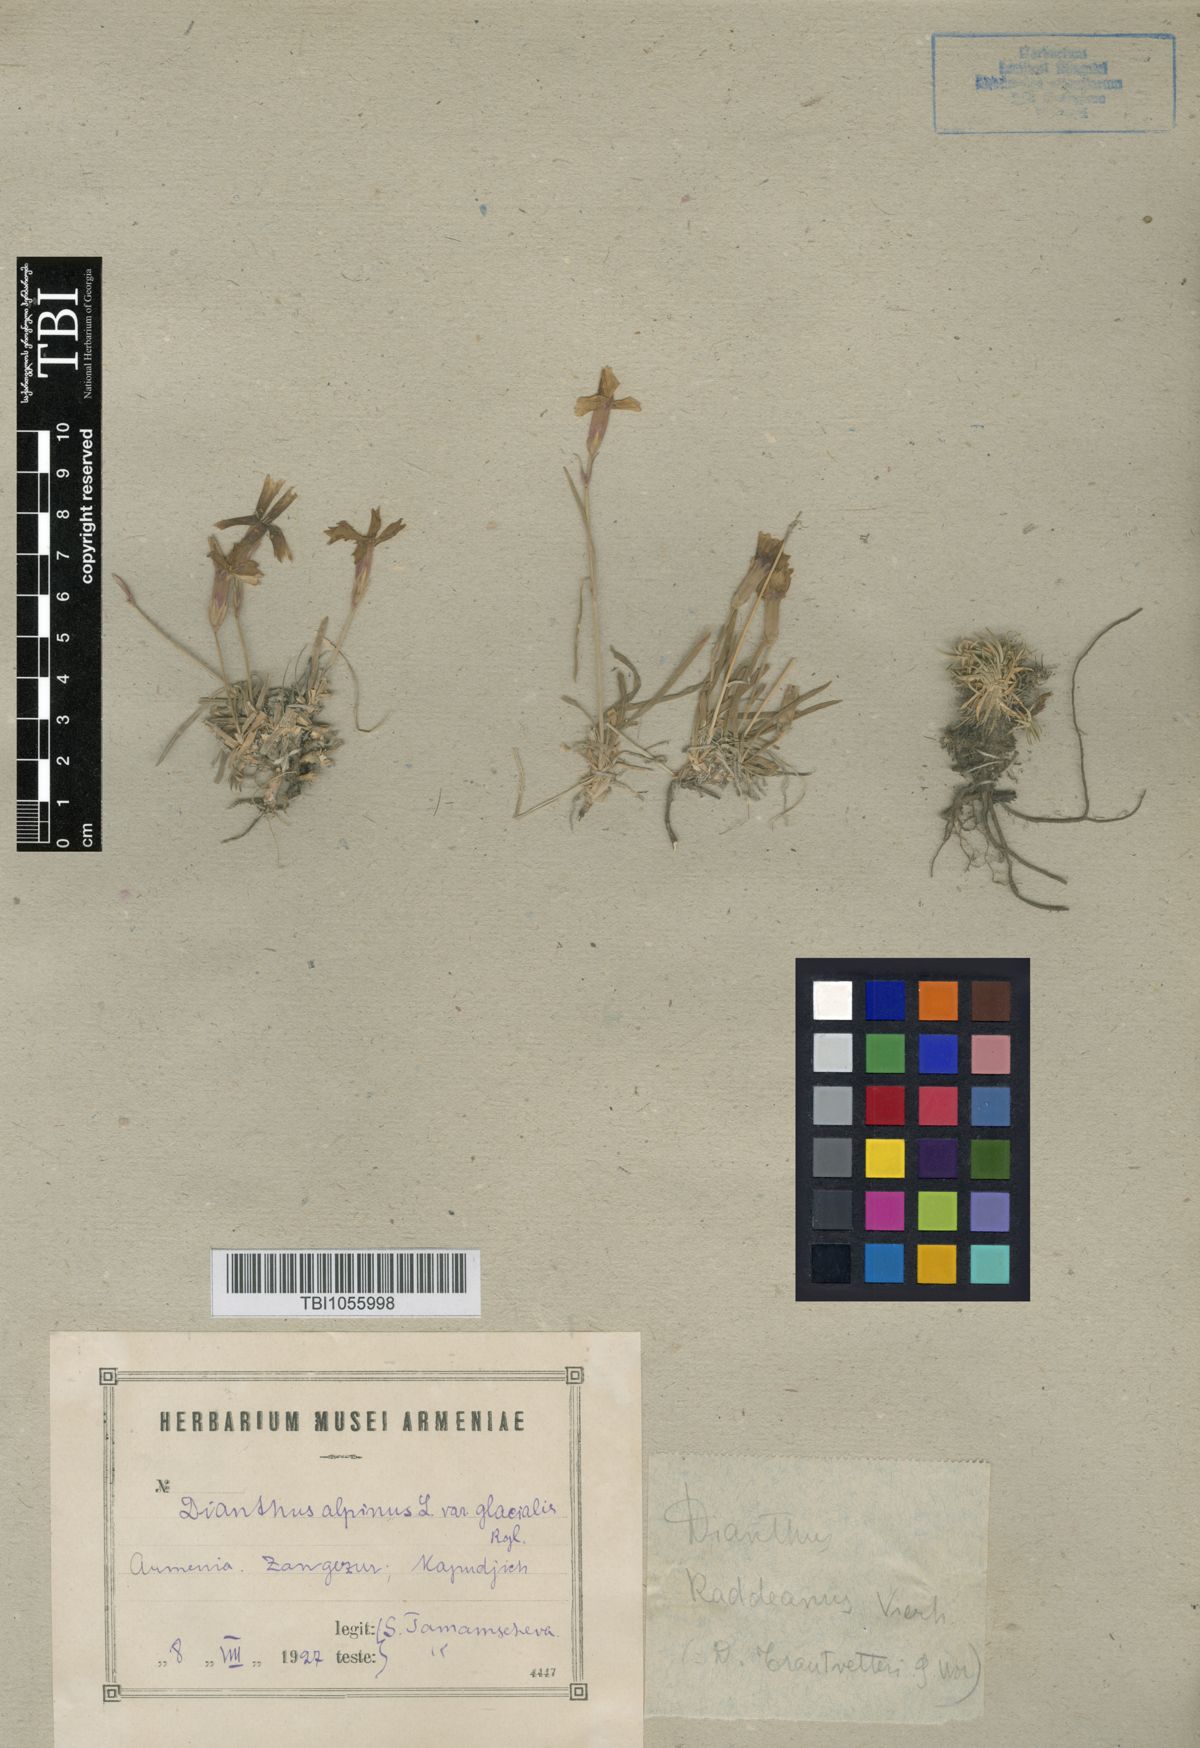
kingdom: Plantae
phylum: Tracheophyta
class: Magnoliopsida
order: Caryophyllales
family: Caryophyllaceae
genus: Dianthus
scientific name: Dianthus raddeanus
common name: Radde's pink
